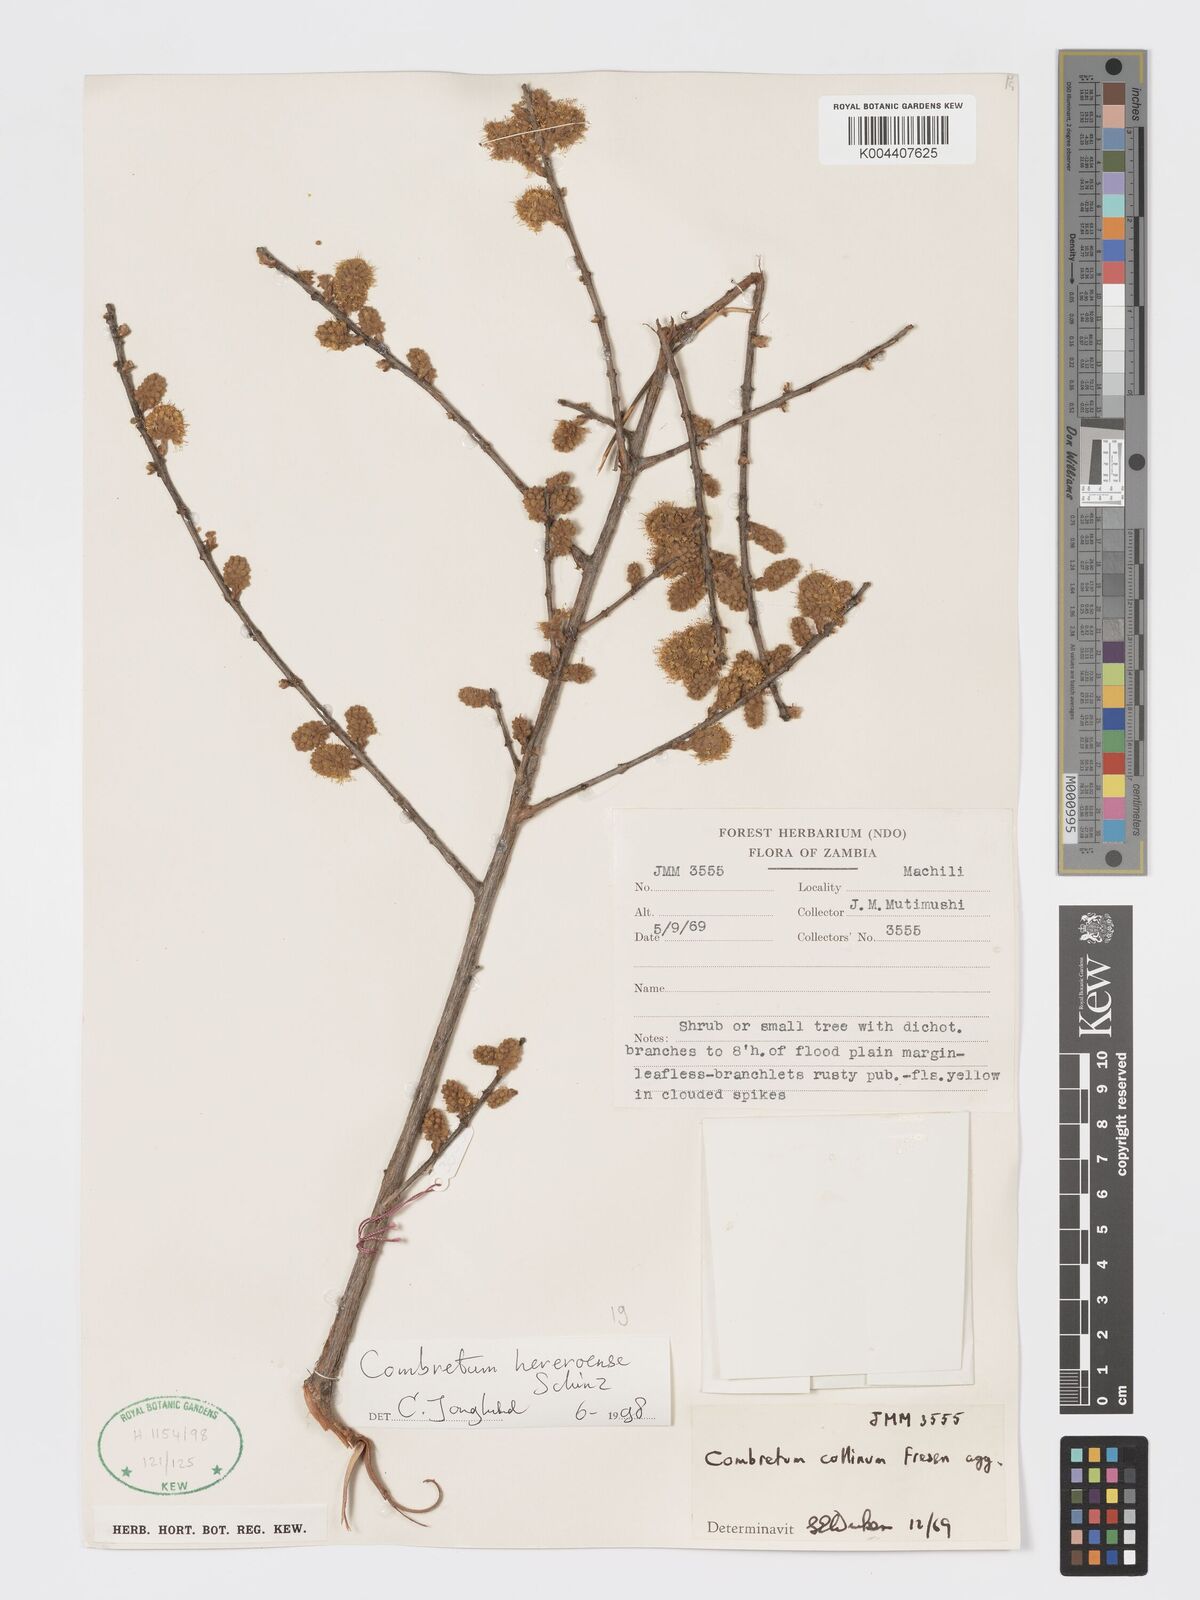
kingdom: Plantae
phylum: Tracheophyta
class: Magnoliopsida
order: Myrtales
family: Combretaceae
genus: Combretum
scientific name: Combretum hereroense
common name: Russet bushwillow
